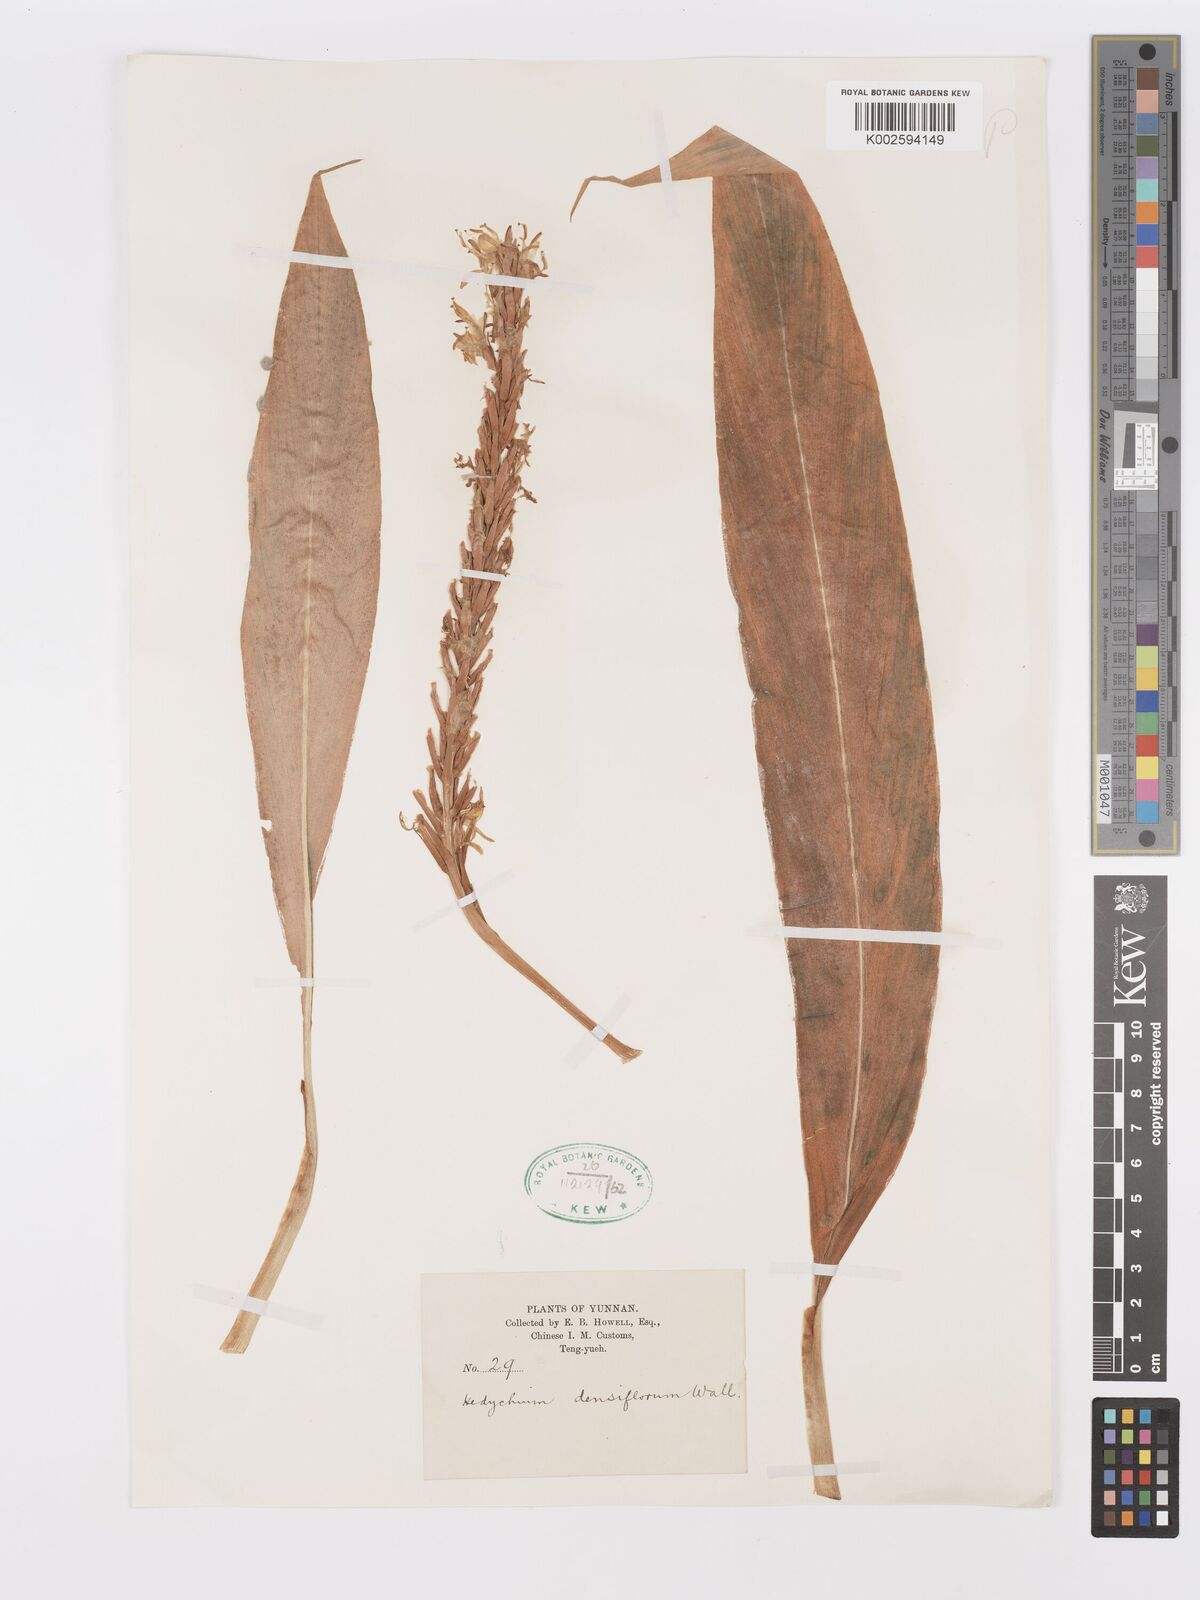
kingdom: Plantae
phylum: Tracheophyta
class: Liliopsida
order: Zingiberales
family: Zingiberaceae
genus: Hedychium
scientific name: Hedychium densiflorum
